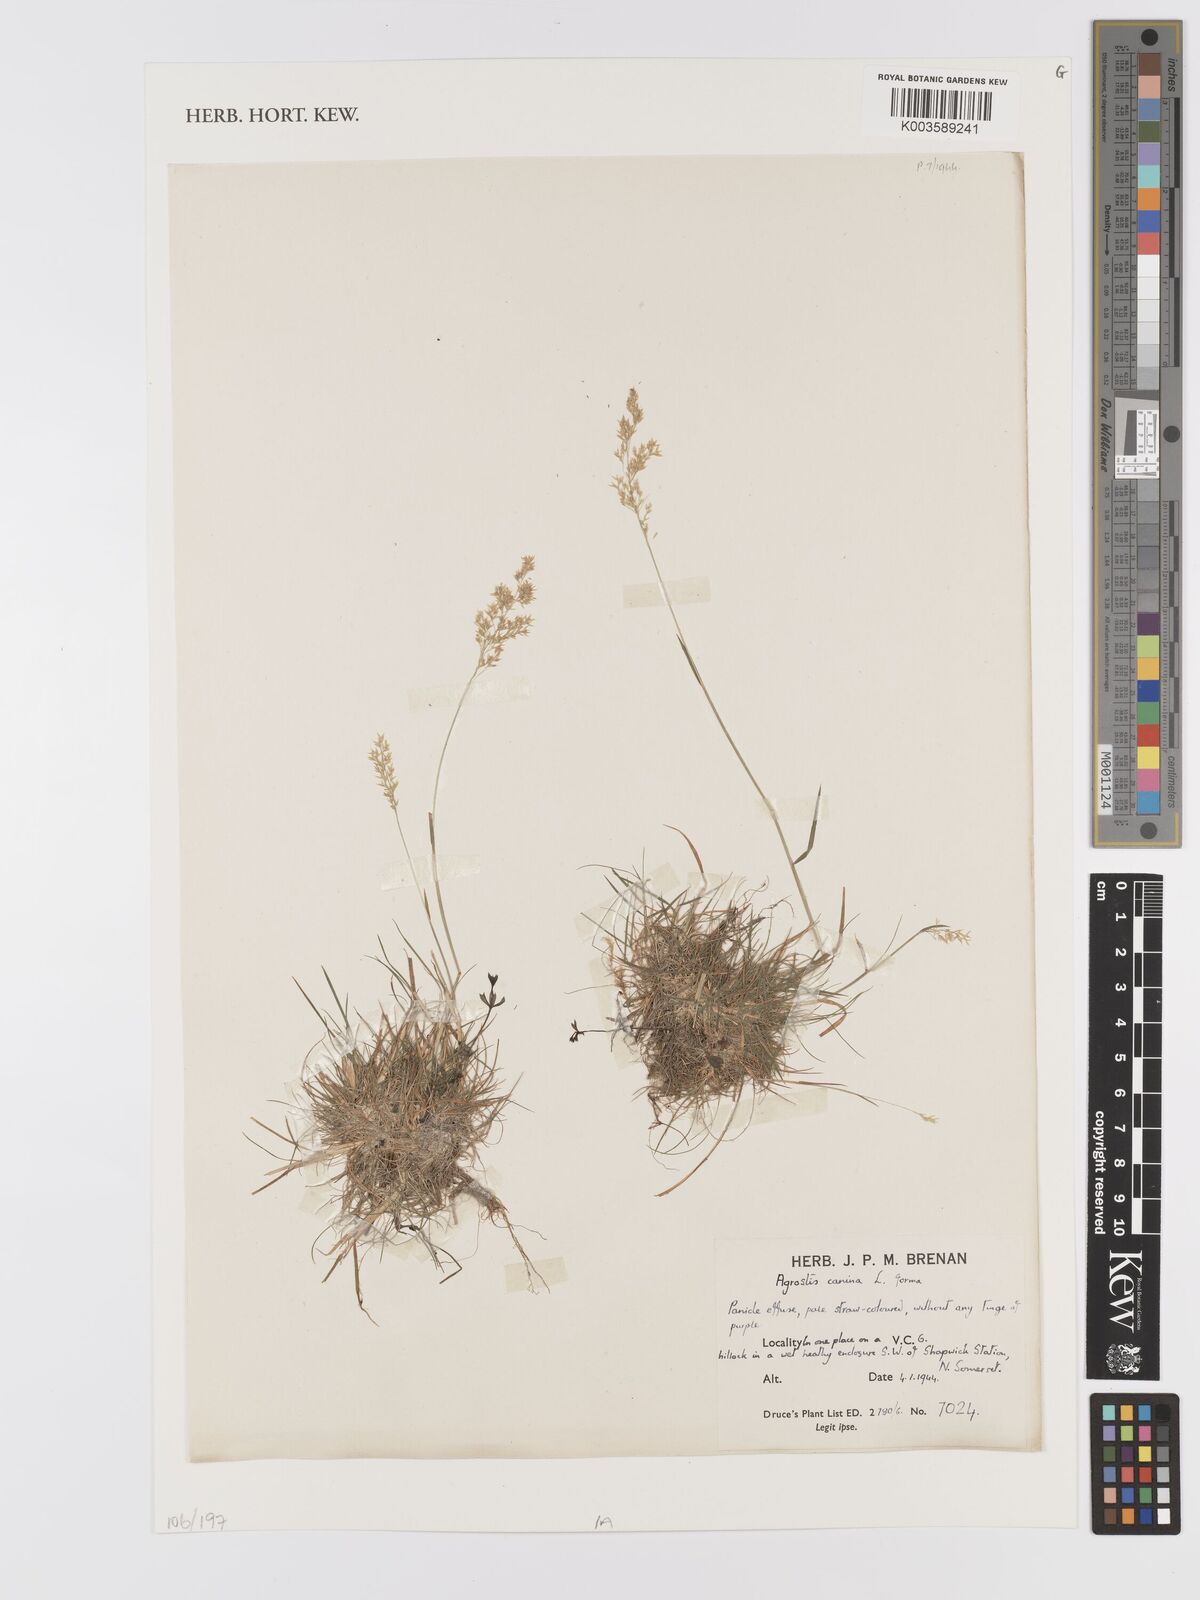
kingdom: Plantae
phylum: Tracheophyta
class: Liliopsida
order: Poales
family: Poaceae
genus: Agrostis
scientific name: Agrostis canina
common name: Velvet bent
